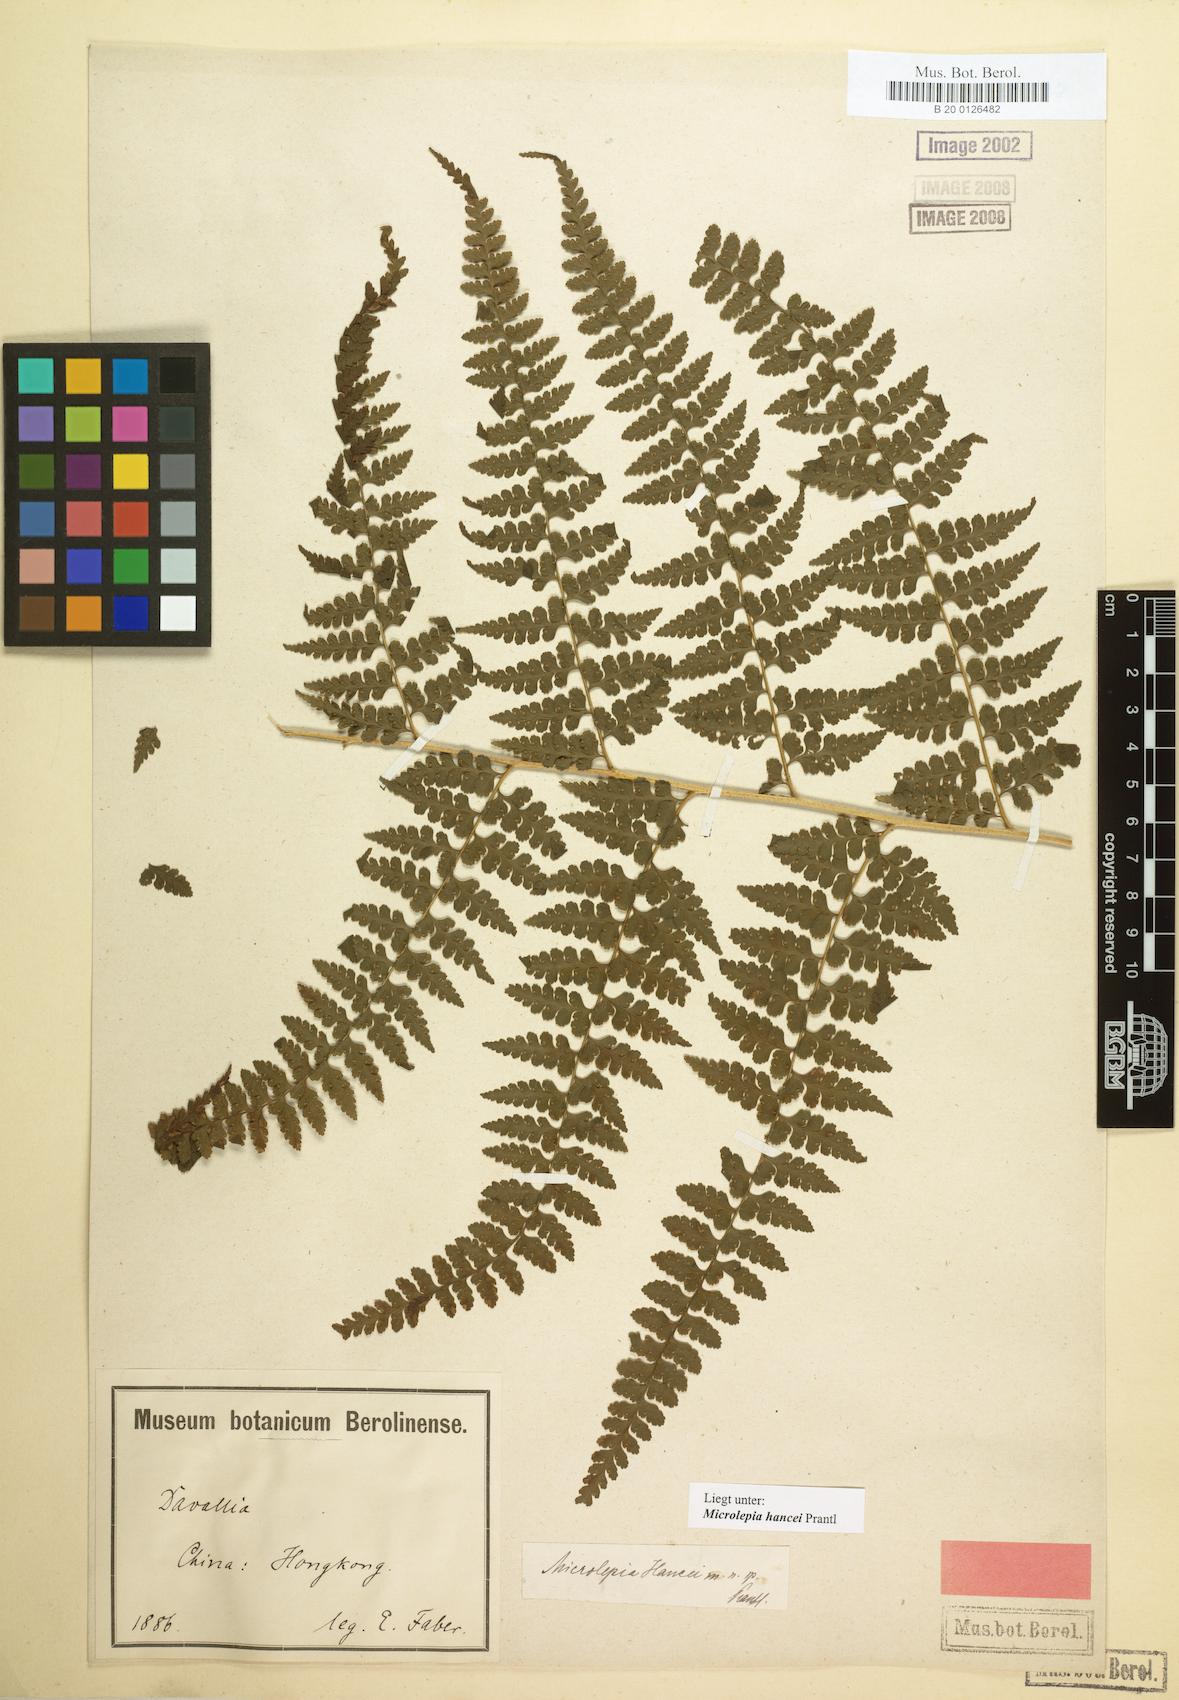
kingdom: Plantae
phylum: Tracheophyta
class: Polypodiopsida
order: Polypodiales
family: Dennstaedtiaceae
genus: Microlepia
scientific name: Microlepia nepalensis
